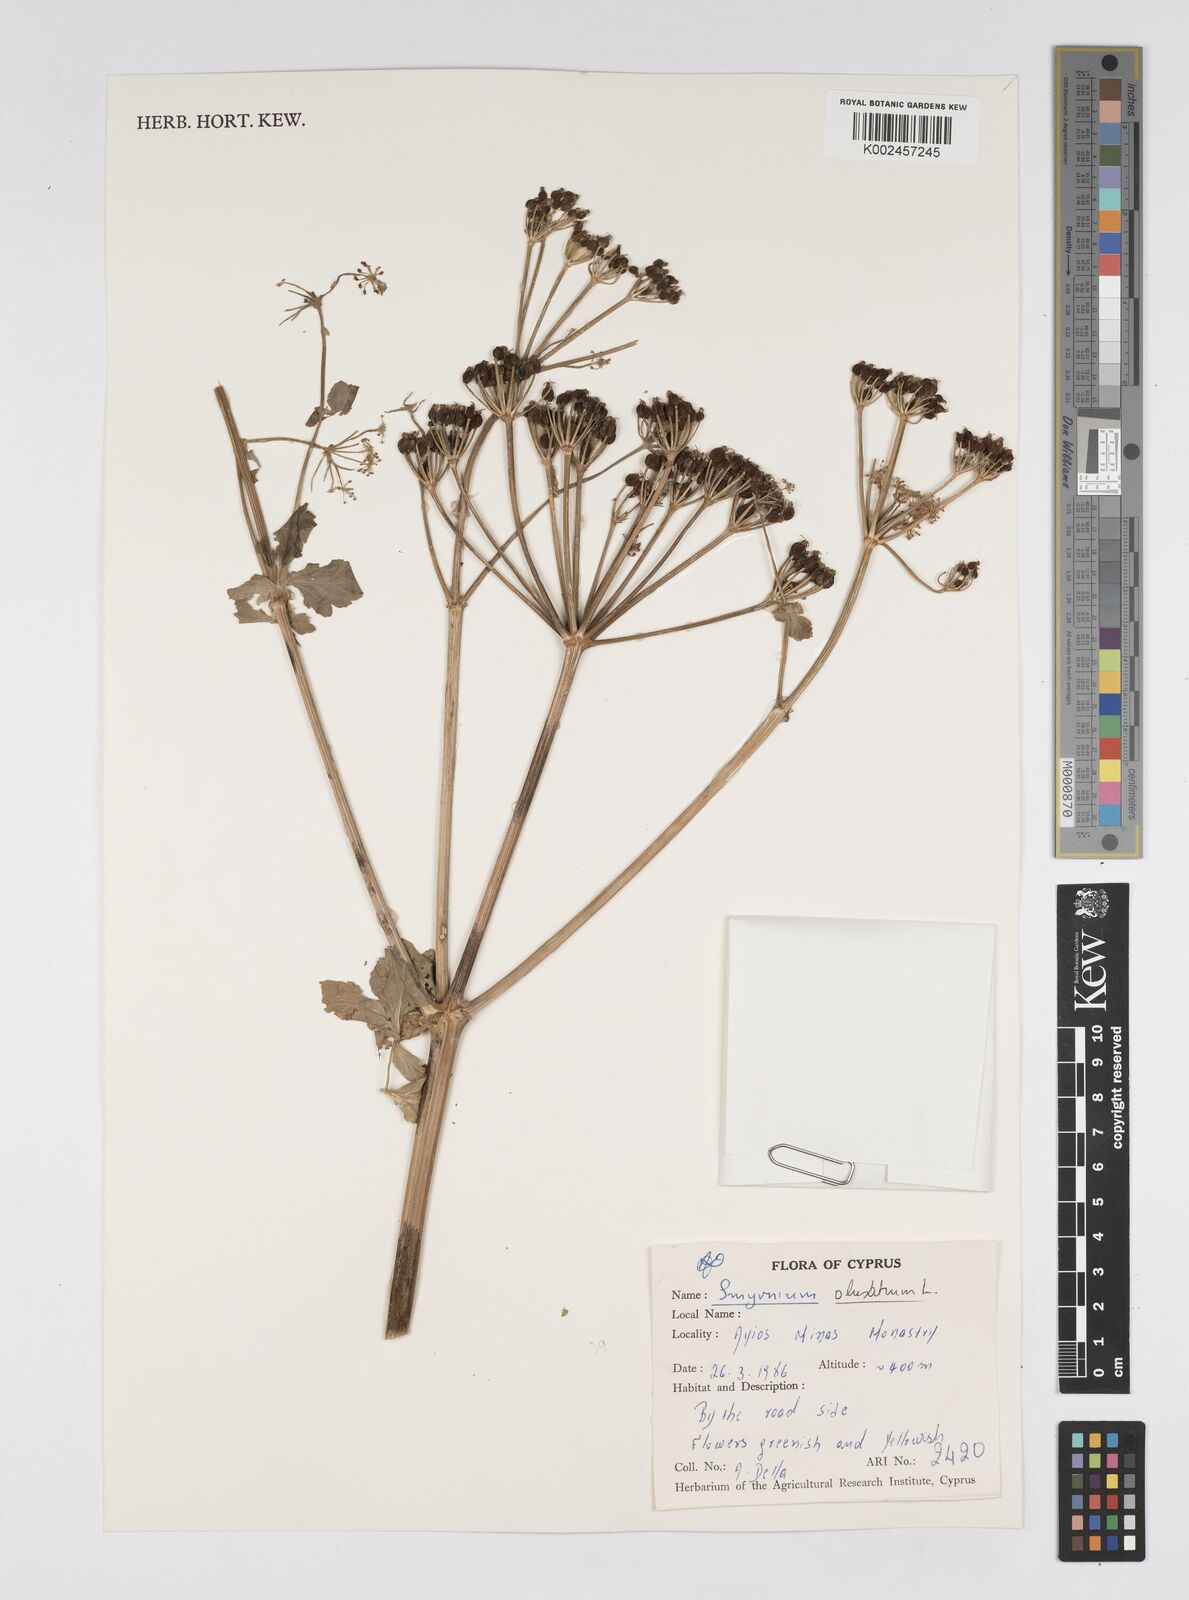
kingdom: Plantae
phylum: Tracheophyta
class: Magnoliopsida
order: Apiales
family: Apiaceae
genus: Smyrnium
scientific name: Smyrnium olusatrum
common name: Alexanders
